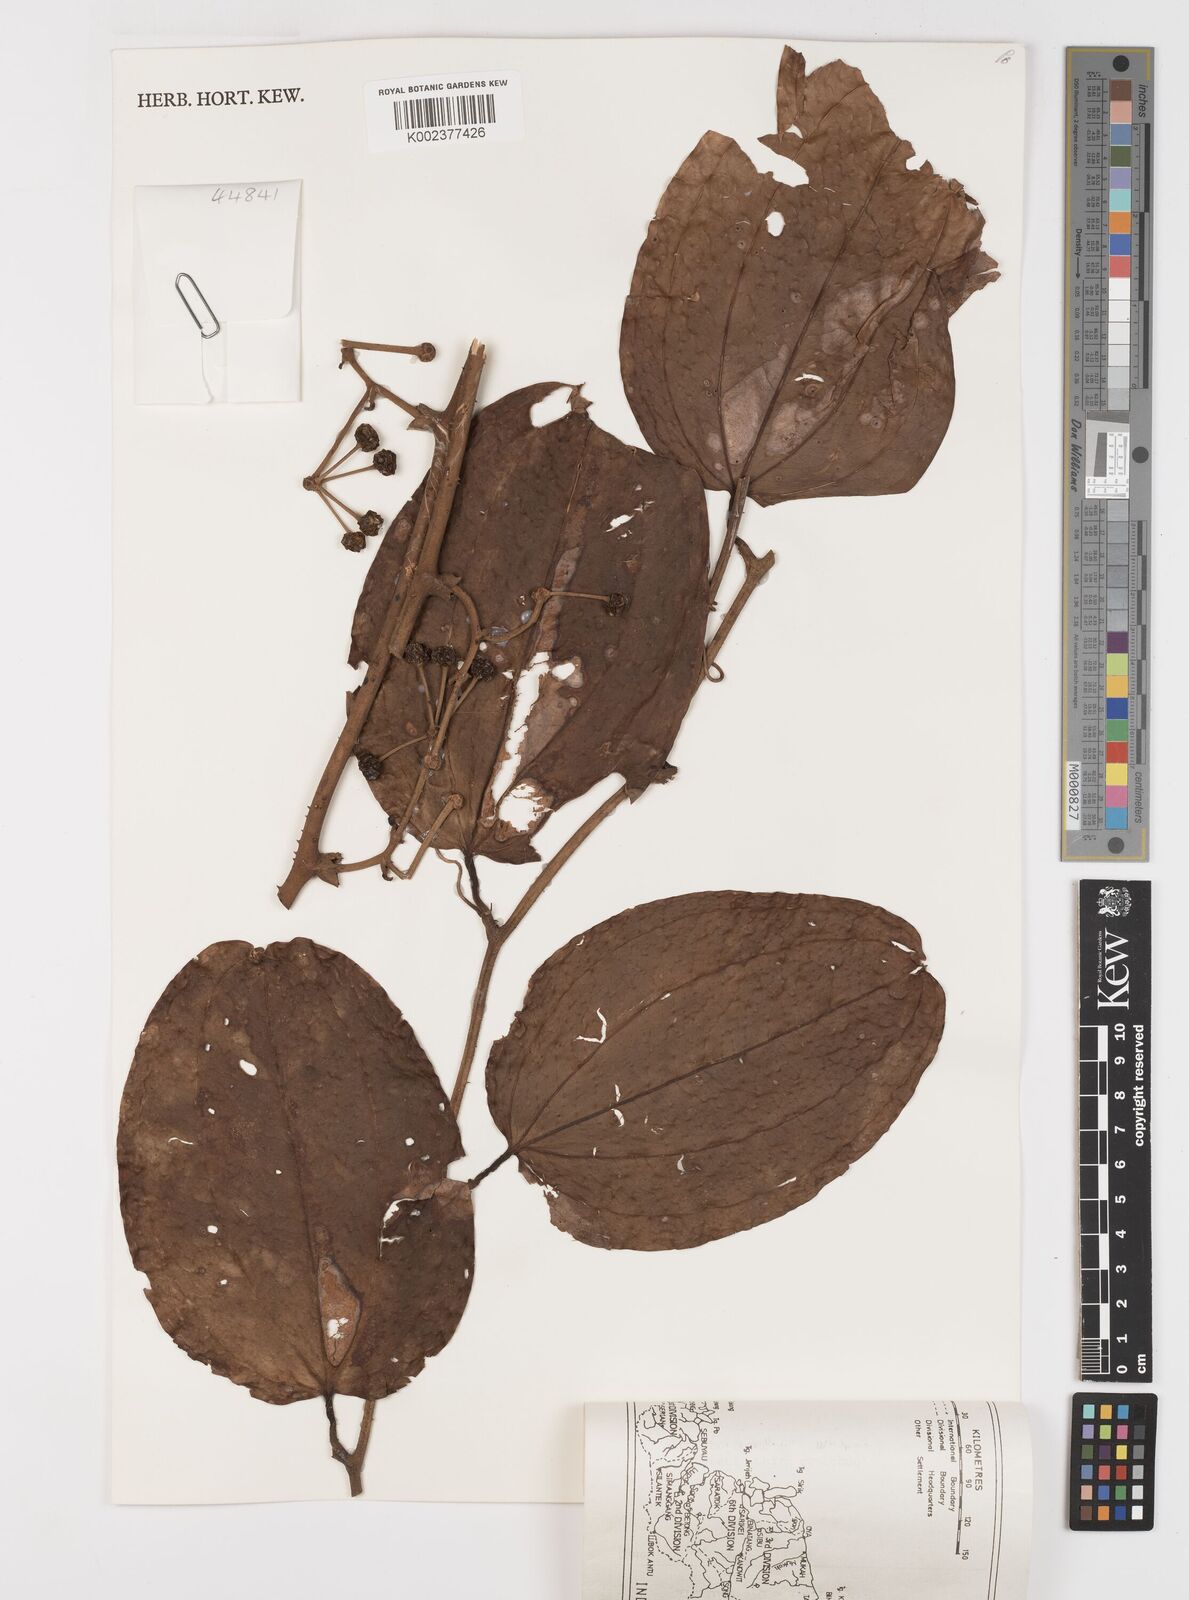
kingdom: Plantae
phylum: Tracheophyta
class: Liliopsida
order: Liliales
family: Smilacaceae
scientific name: Smilacaceae
